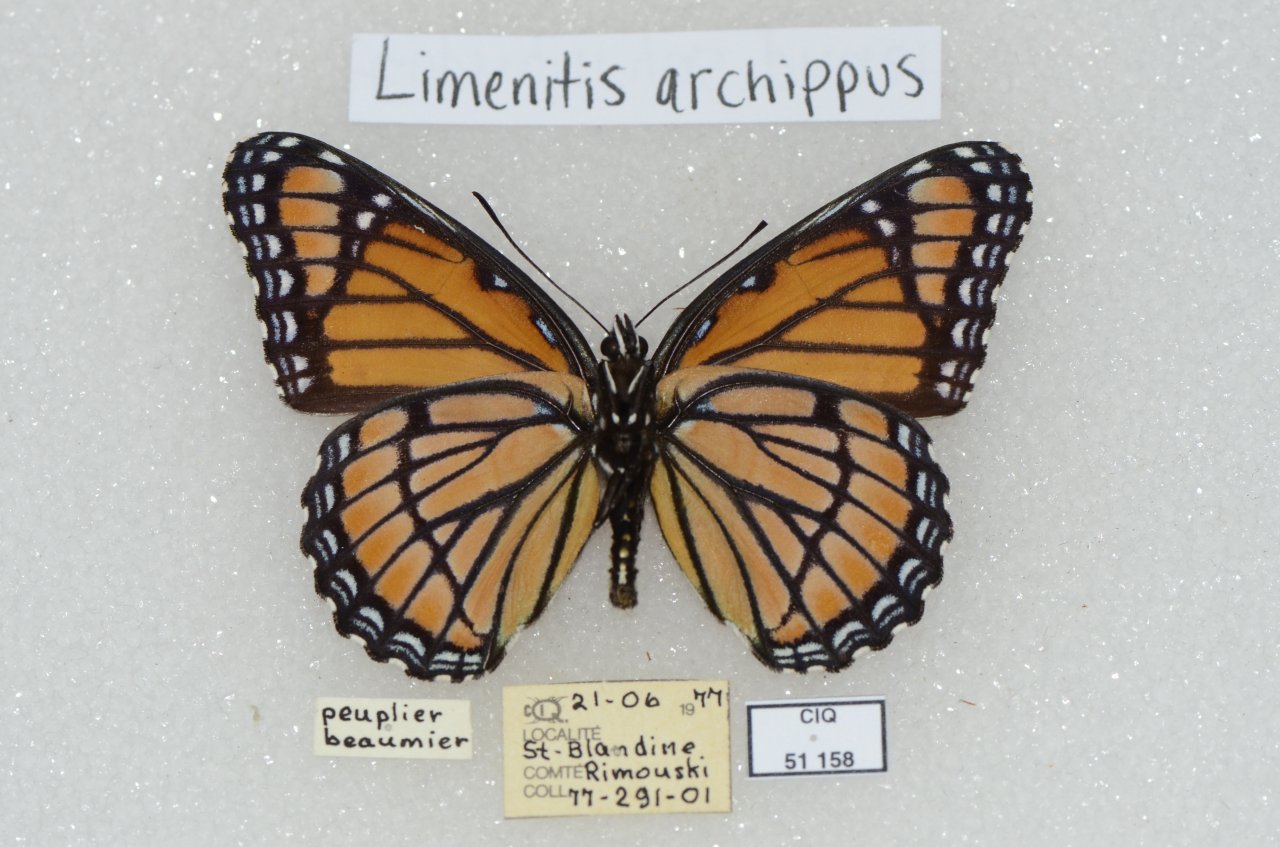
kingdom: Animalia
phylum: Arthropoda
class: Insecta
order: Lepidoptera
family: Nymphalidae
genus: Limenitis
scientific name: Limenitis archippus
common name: Viceroy
